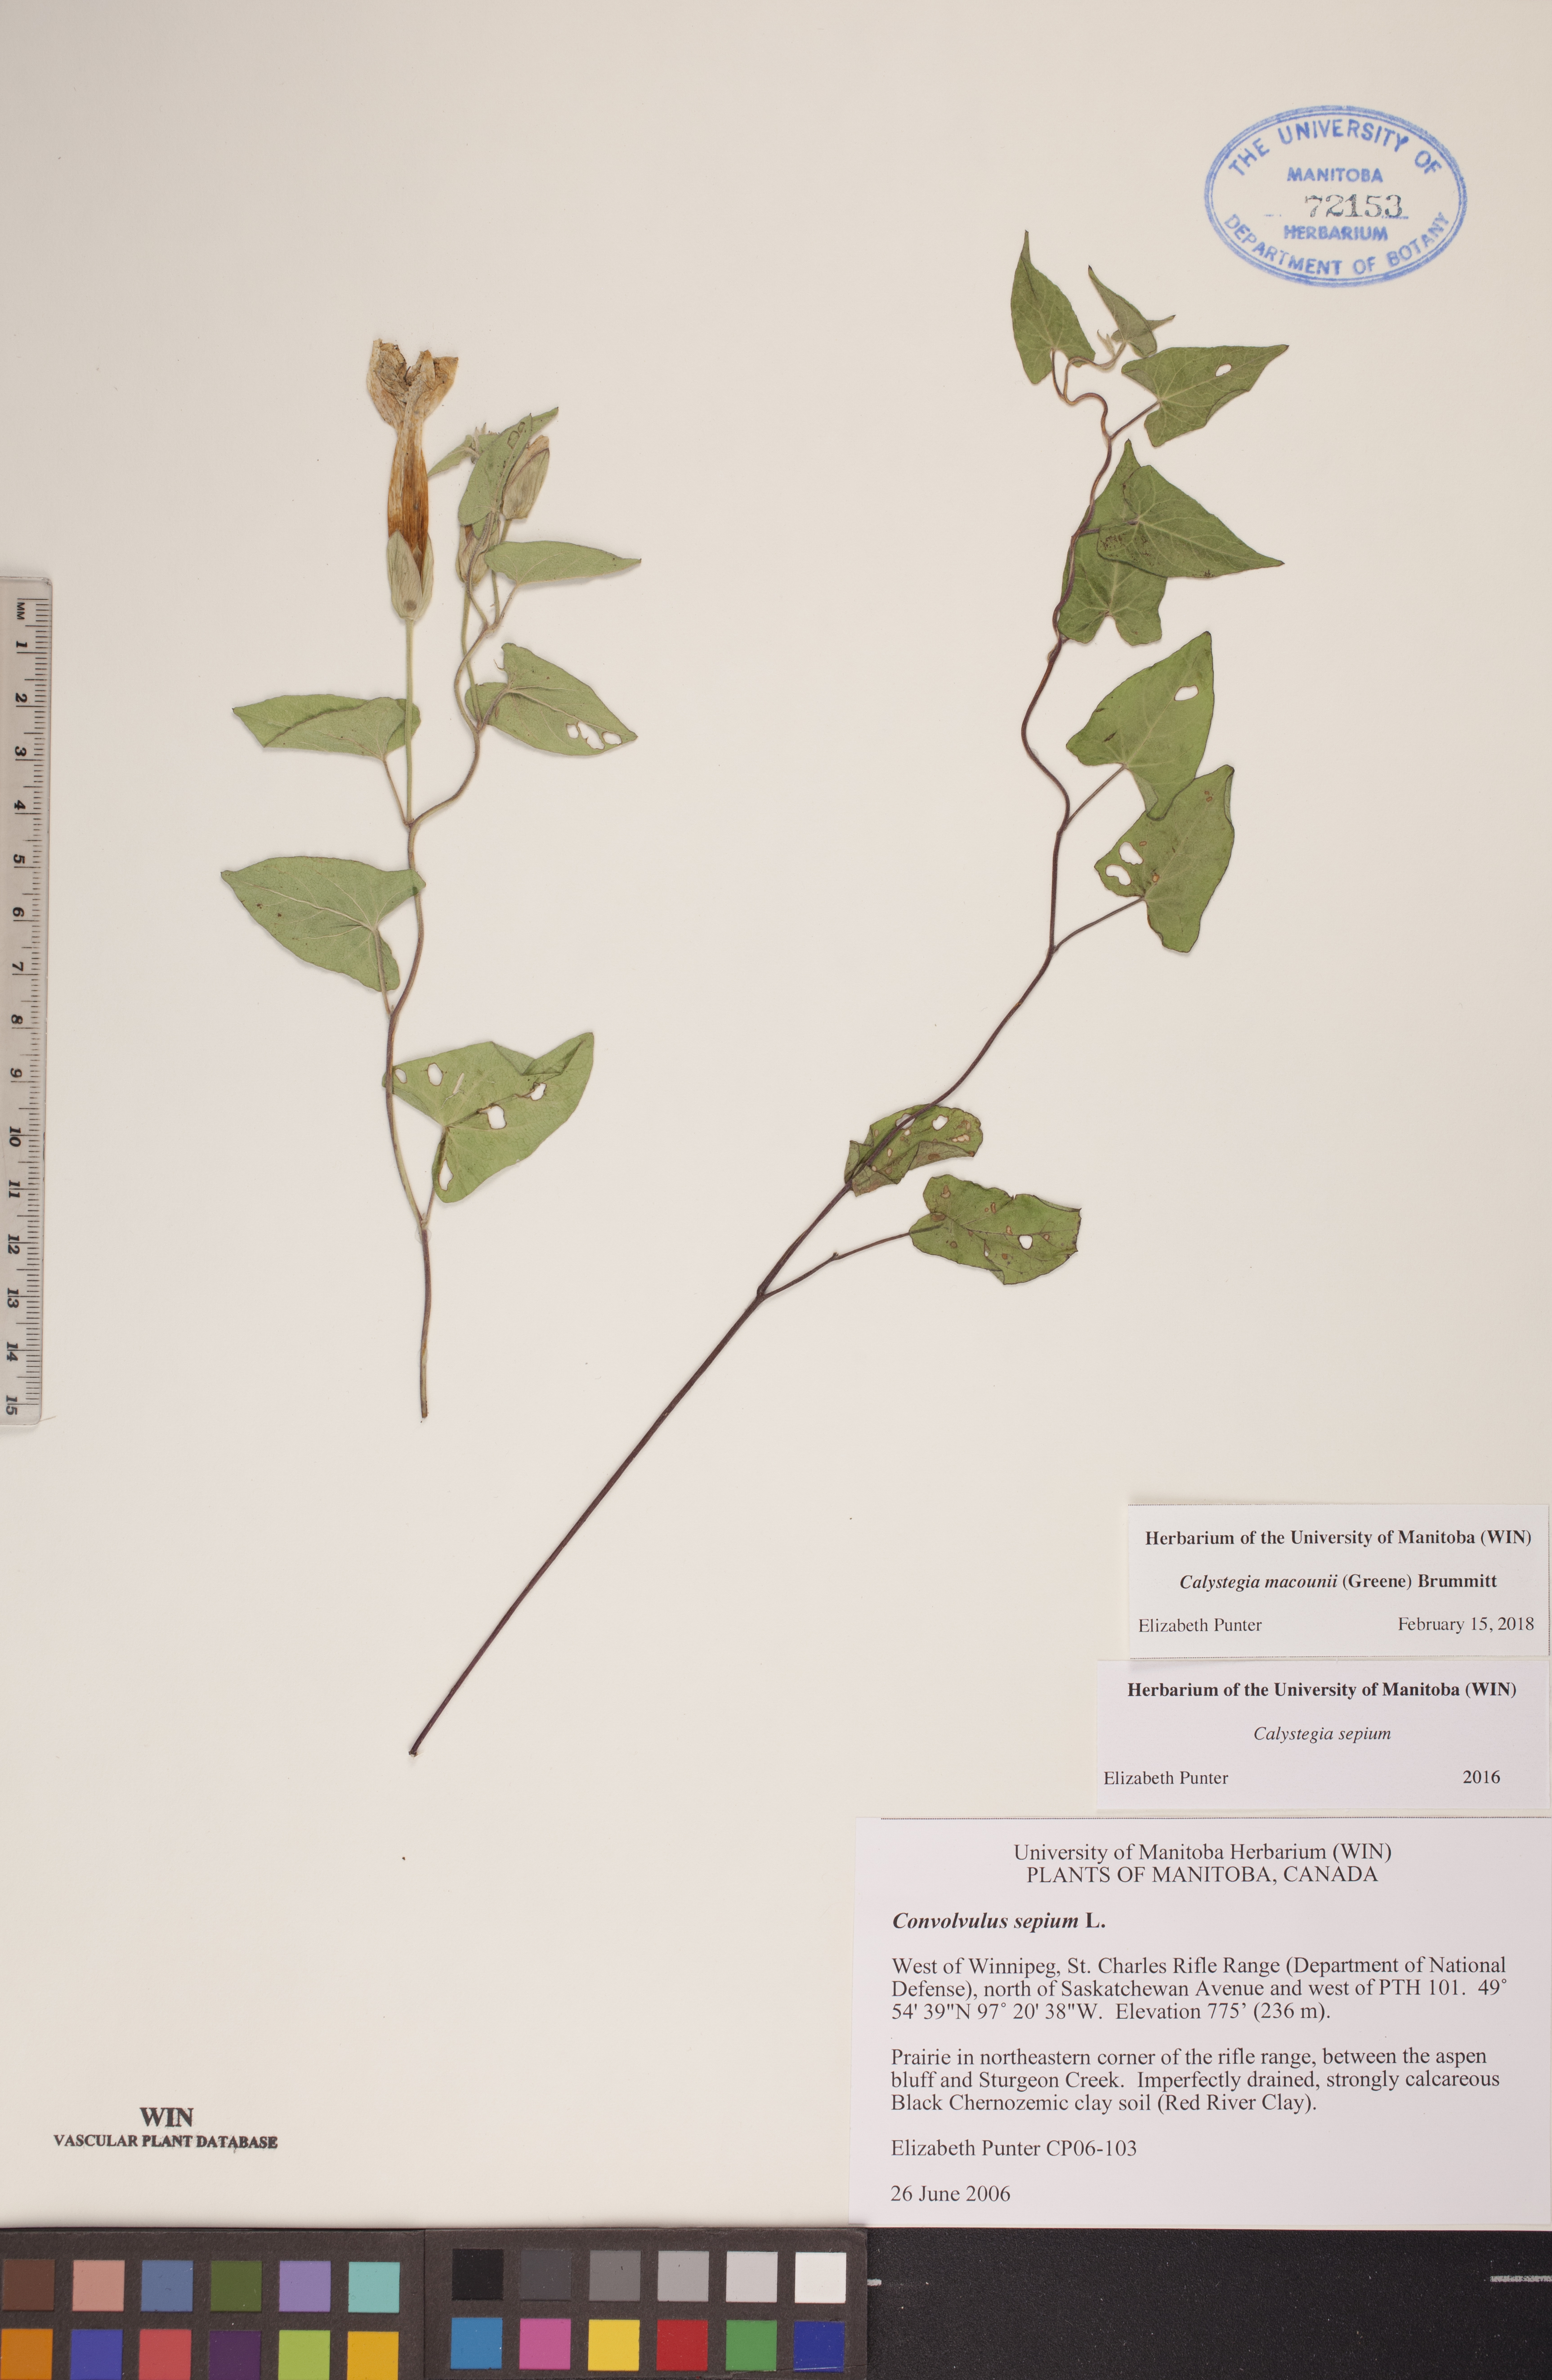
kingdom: Plantae
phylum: Tracheophyta
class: Magnoliopsida
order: Solanales
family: Convolvulaceae
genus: Calystegia
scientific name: Calystegia macounii
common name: Macoun's bindweed
